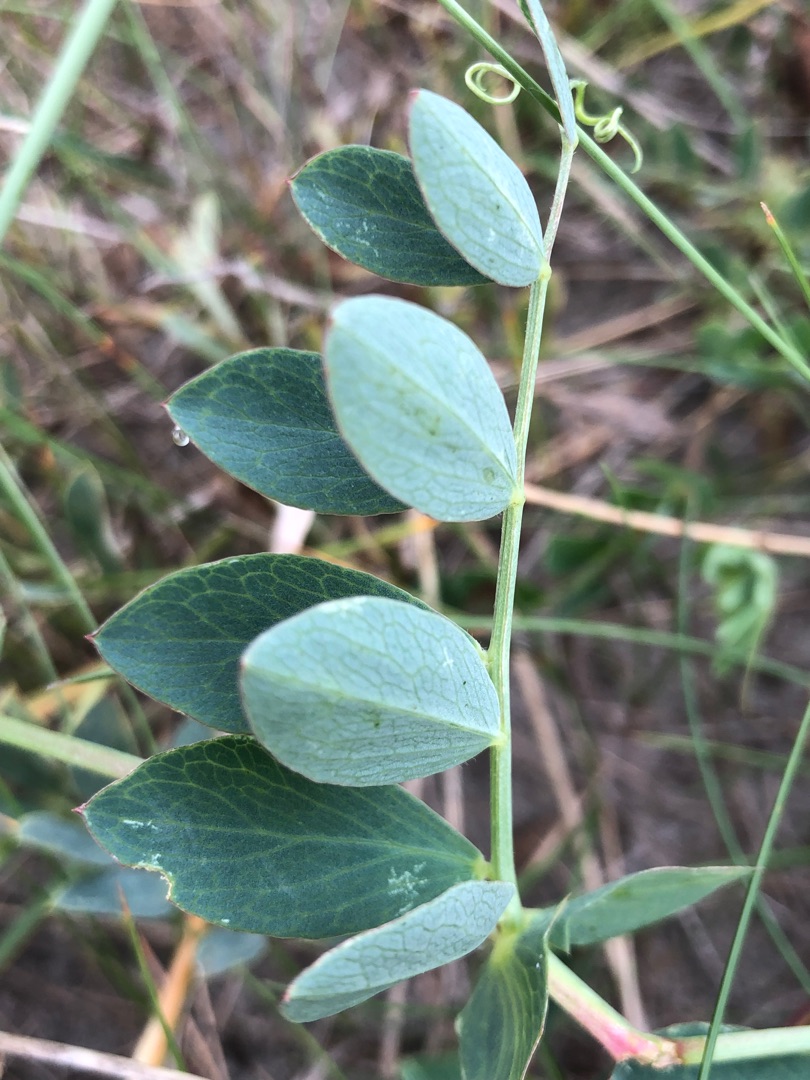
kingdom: Plantae
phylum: Tracheophyta
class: Magnoliopsida
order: Fabales
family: Fabaceae
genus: Lathyrus
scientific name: Lathyrus japonicus
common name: Strand-fladbælg
